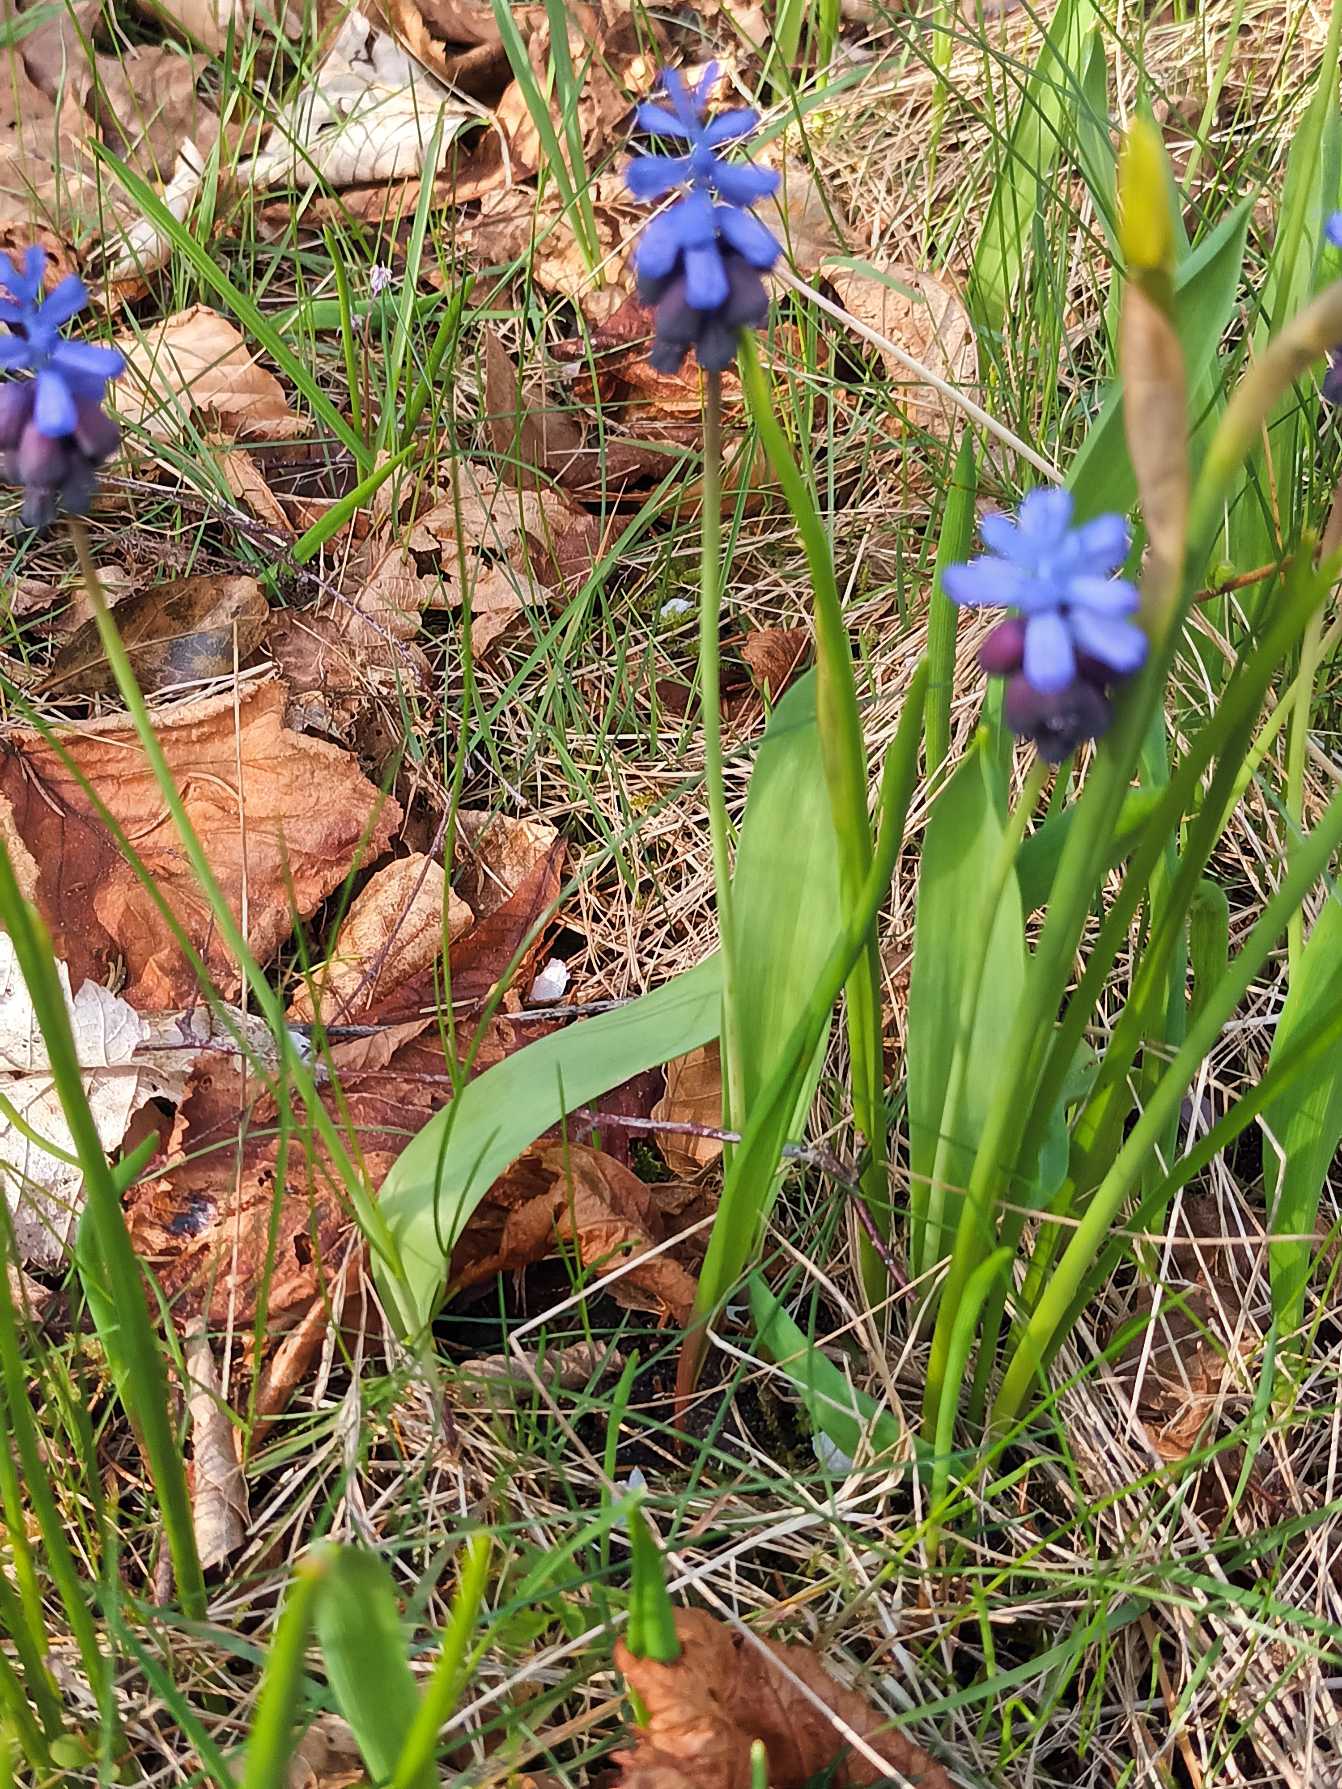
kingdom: Plantae
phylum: Tracheophyta
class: Liliopsida
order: Asparagales
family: Asparagaceae
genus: Muscari
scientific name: Muscari latifolium
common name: Bredbladet perlehyacint
